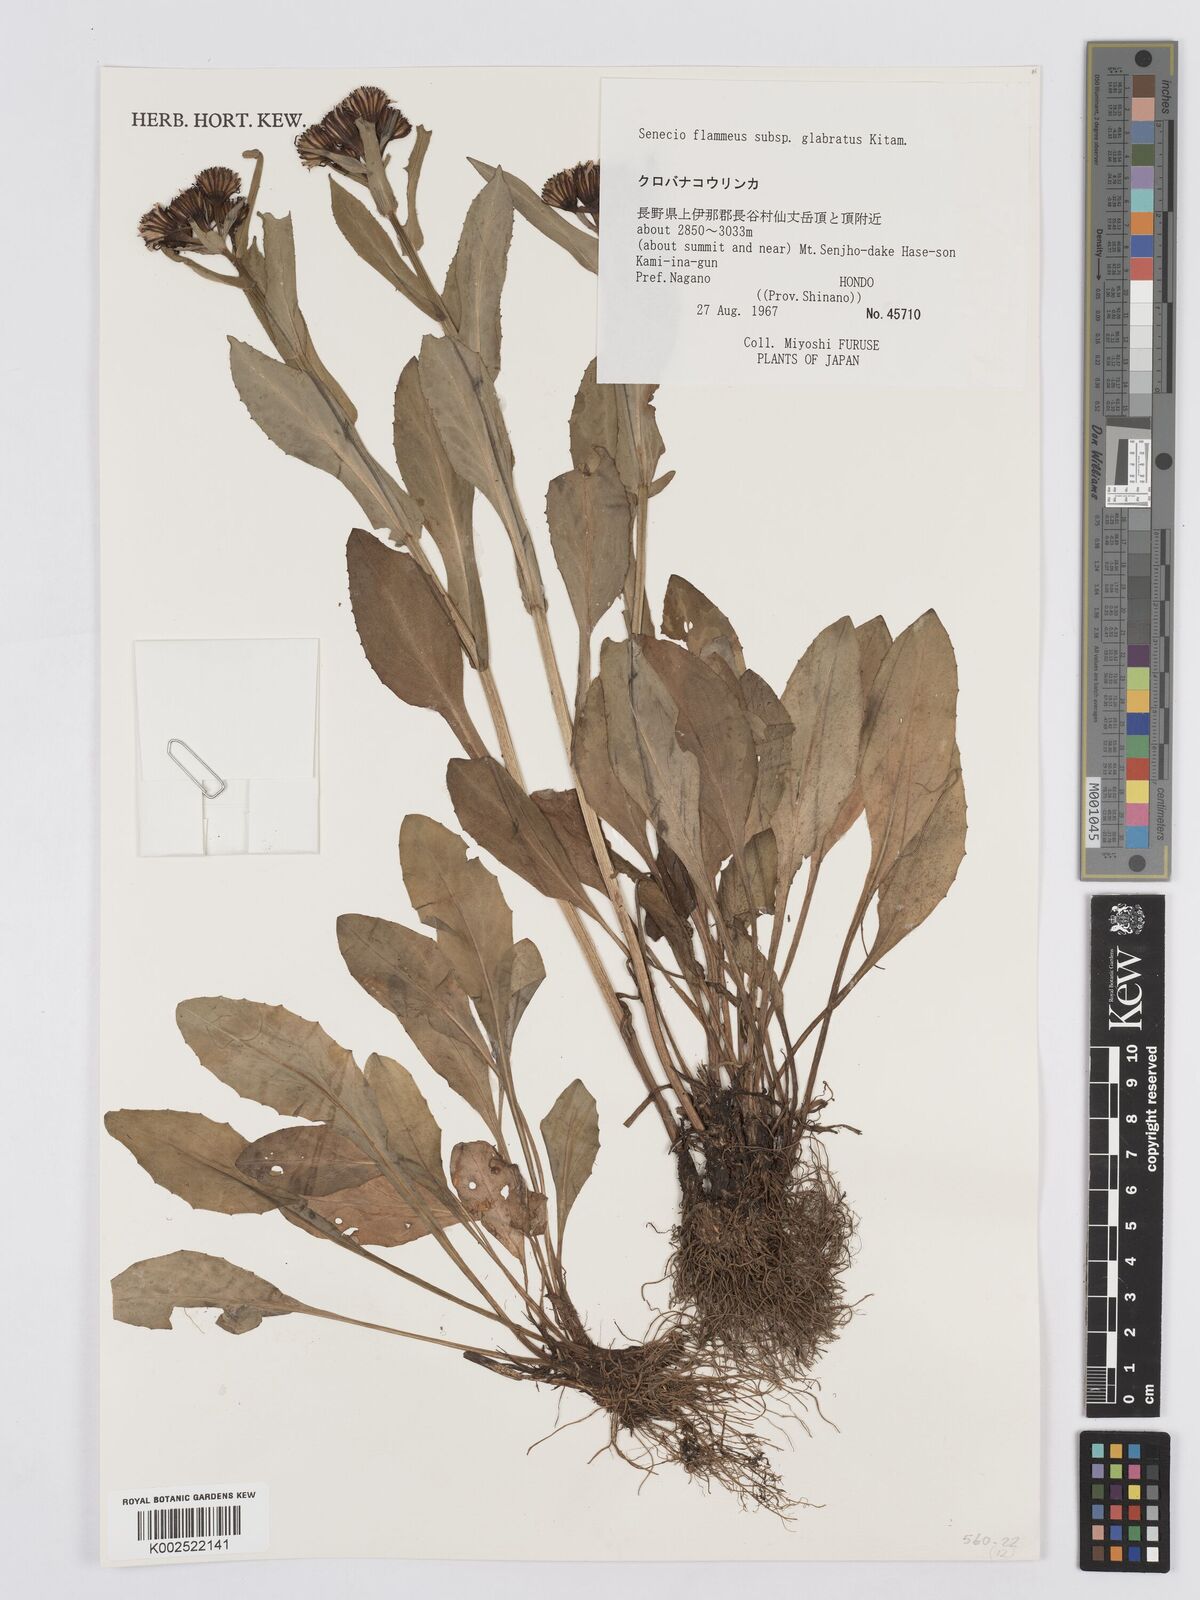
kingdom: Plantae
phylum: Tracheophyta
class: Magnoliopsida
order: Asterales
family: Asteraceae
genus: Tephroseris
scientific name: Tephroseris flammea
